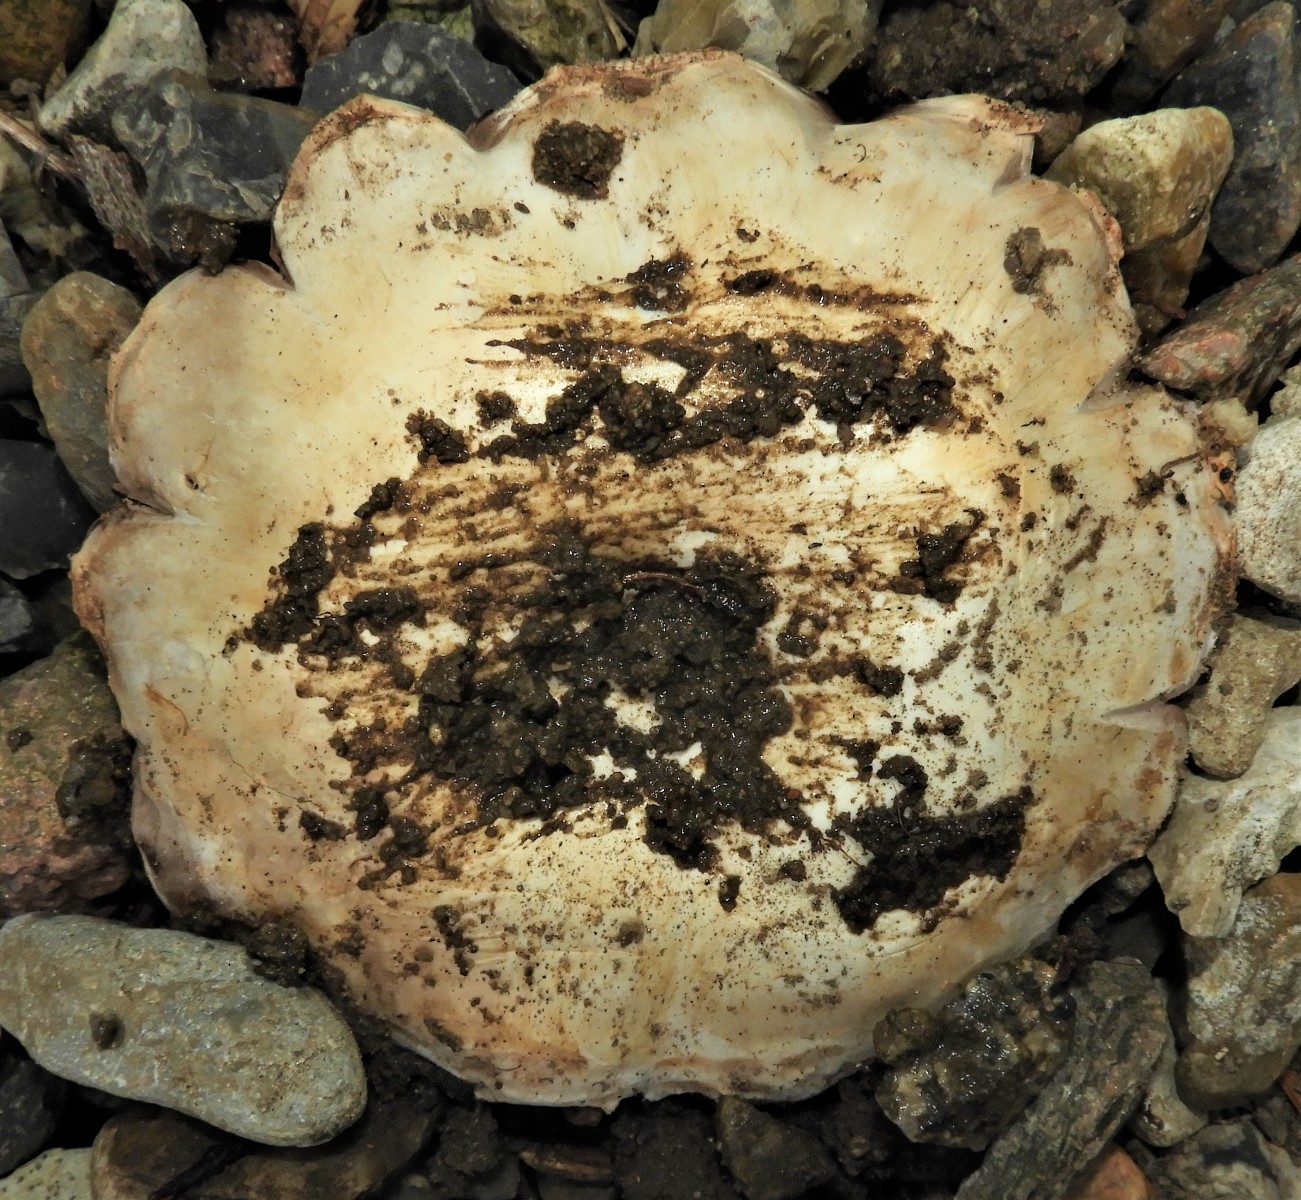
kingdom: Fungi
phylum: Basidiomycota
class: Agaricomycetes
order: Agaricales
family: Agaricaceae
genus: Agaricus
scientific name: Agaricus bitorquis
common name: vej-champignon
